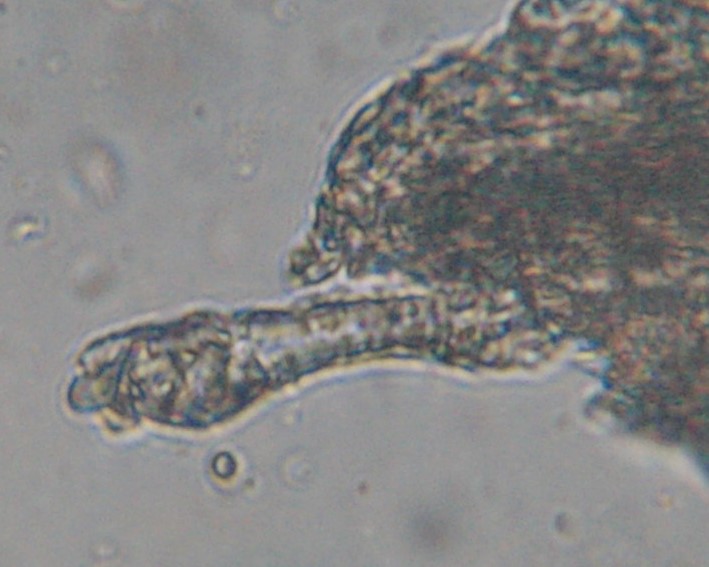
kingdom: Fungi
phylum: Basidiomycota
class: Agaricomycetes
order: Corticiales
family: Corticiaceae
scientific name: Corticiaceae
